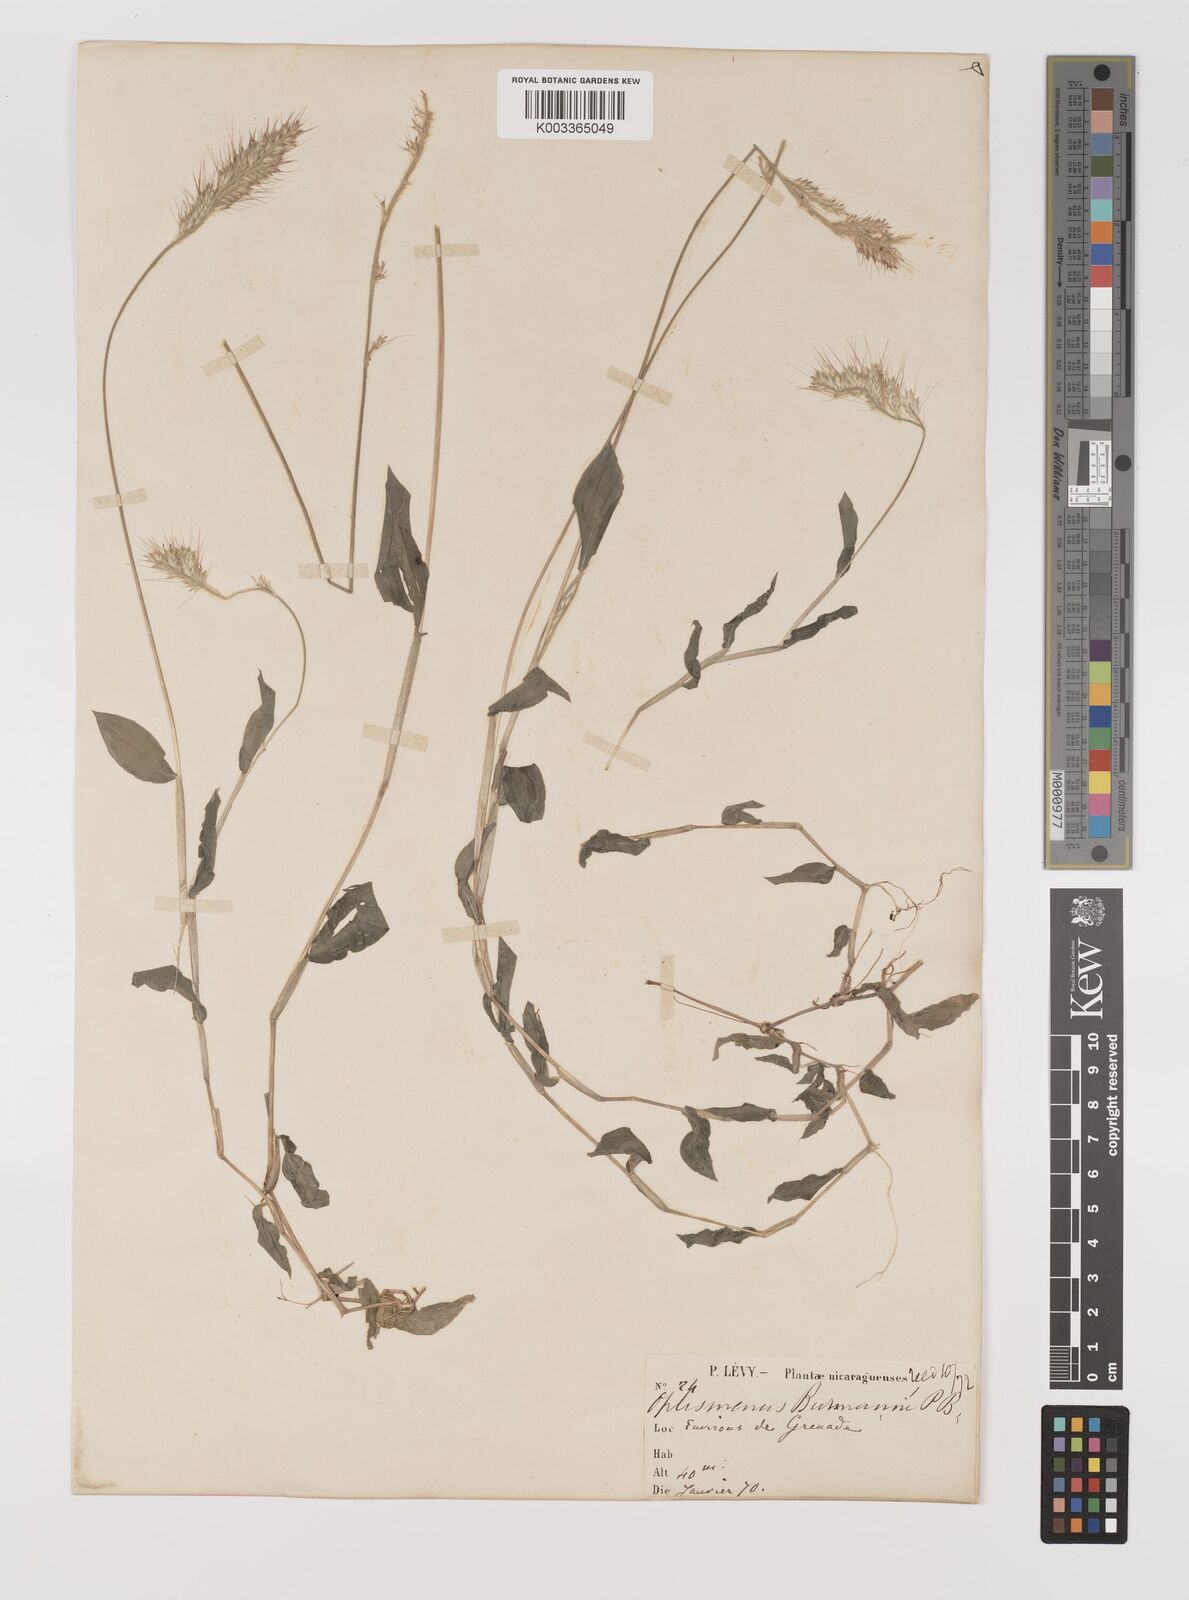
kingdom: Plantae
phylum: Tracheophyta
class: Liliopsida
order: Poales
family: Poaceae
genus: Oplismenus
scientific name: Oplismenus burmanni
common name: Burmann's basketgrass
